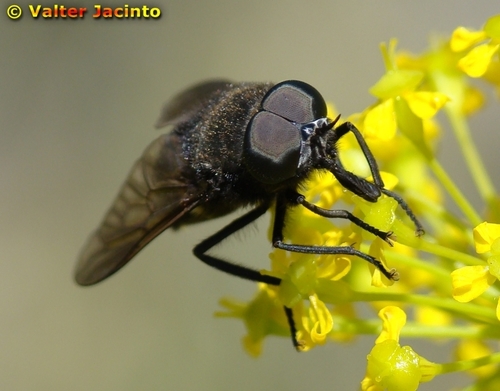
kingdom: Animalia
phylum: Arthropoda
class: Insecta
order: Diptera
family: Tabanidae
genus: Dasyrhamphis
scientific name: Dasyrhamphis ater
